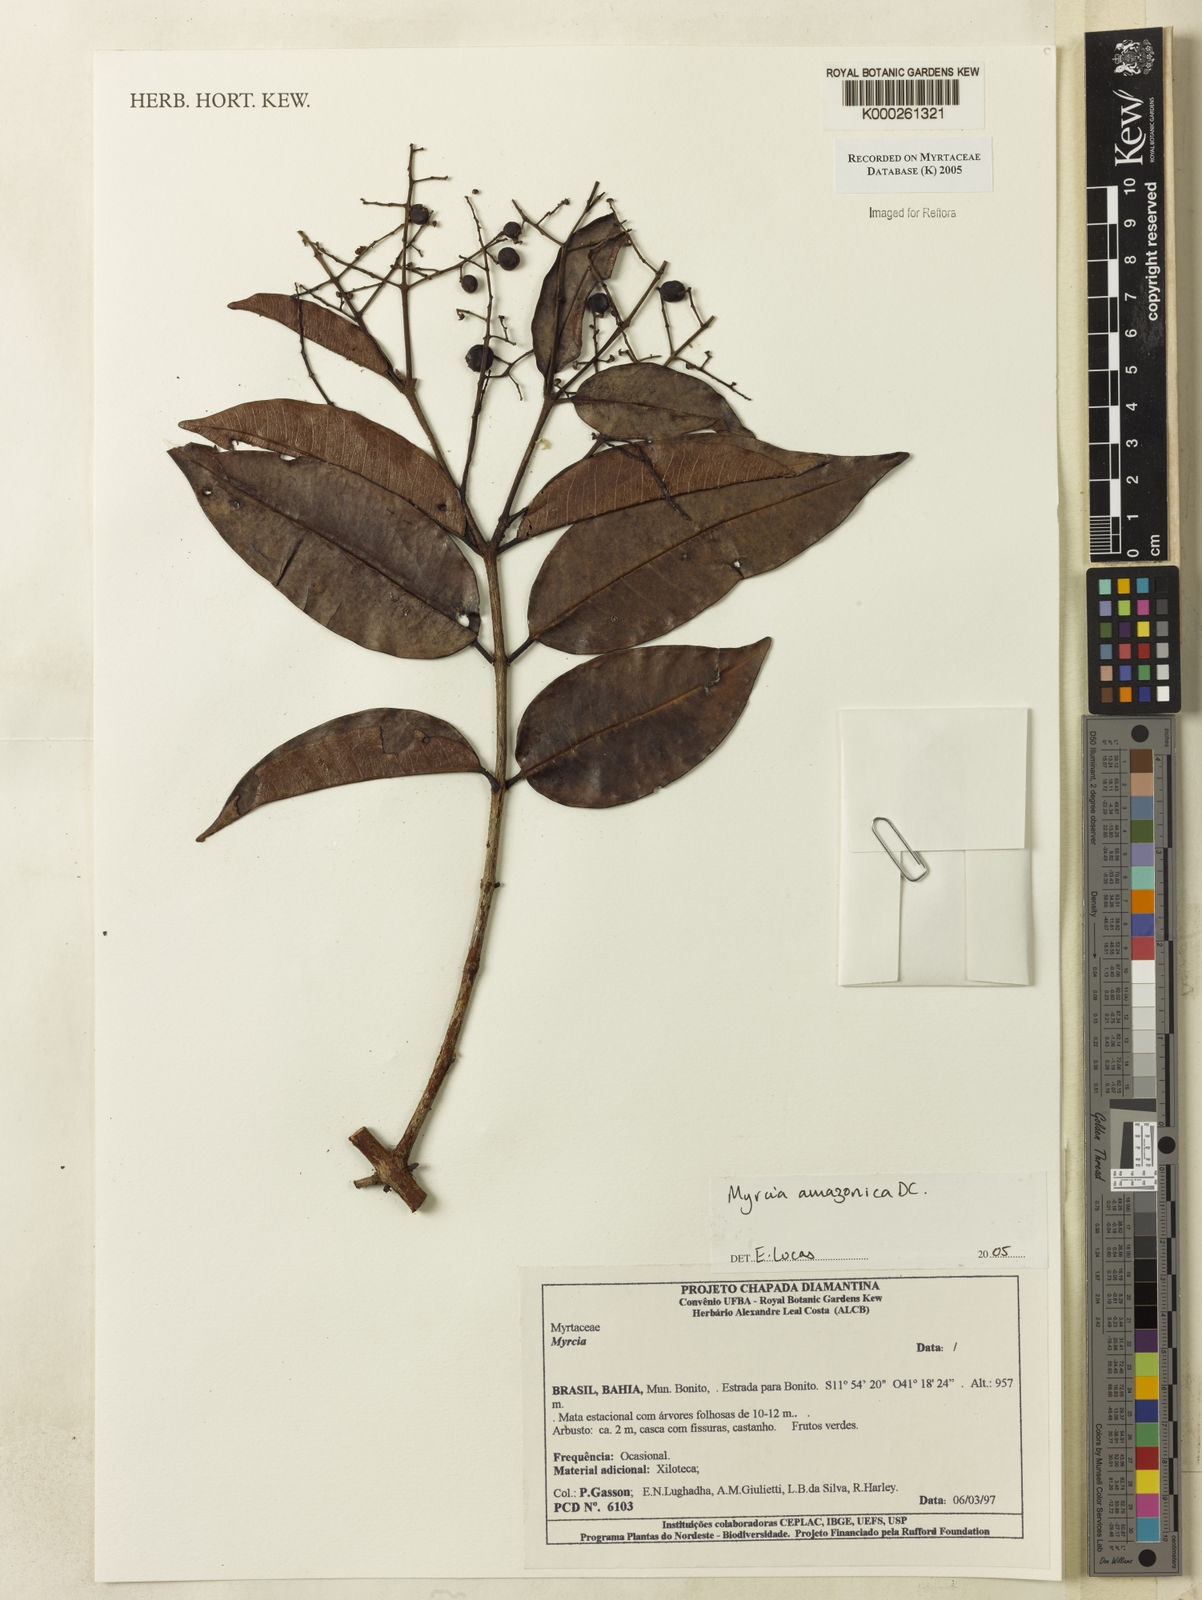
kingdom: Plantae
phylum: Tracheophyta
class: Magnoliopsida
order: Myrtales
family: Myrtaceae
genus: Myrcia
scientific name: Myrcia amazonica
